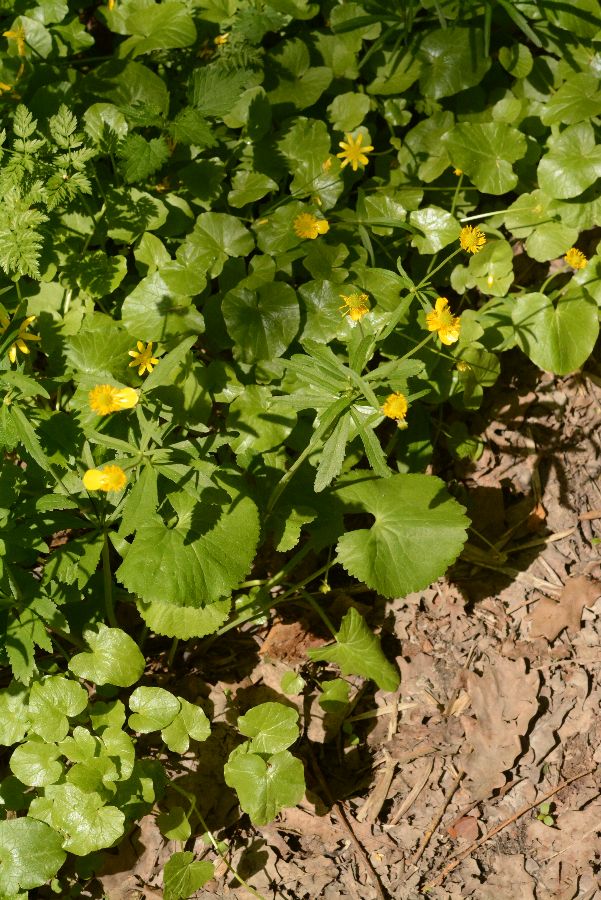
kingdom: Plantae
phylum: Tracheophyta
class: Magnoliopsida
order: Ranunculales
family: Ranunculaceae
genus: Ranunculus
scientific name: Ranunculus cassubicus
